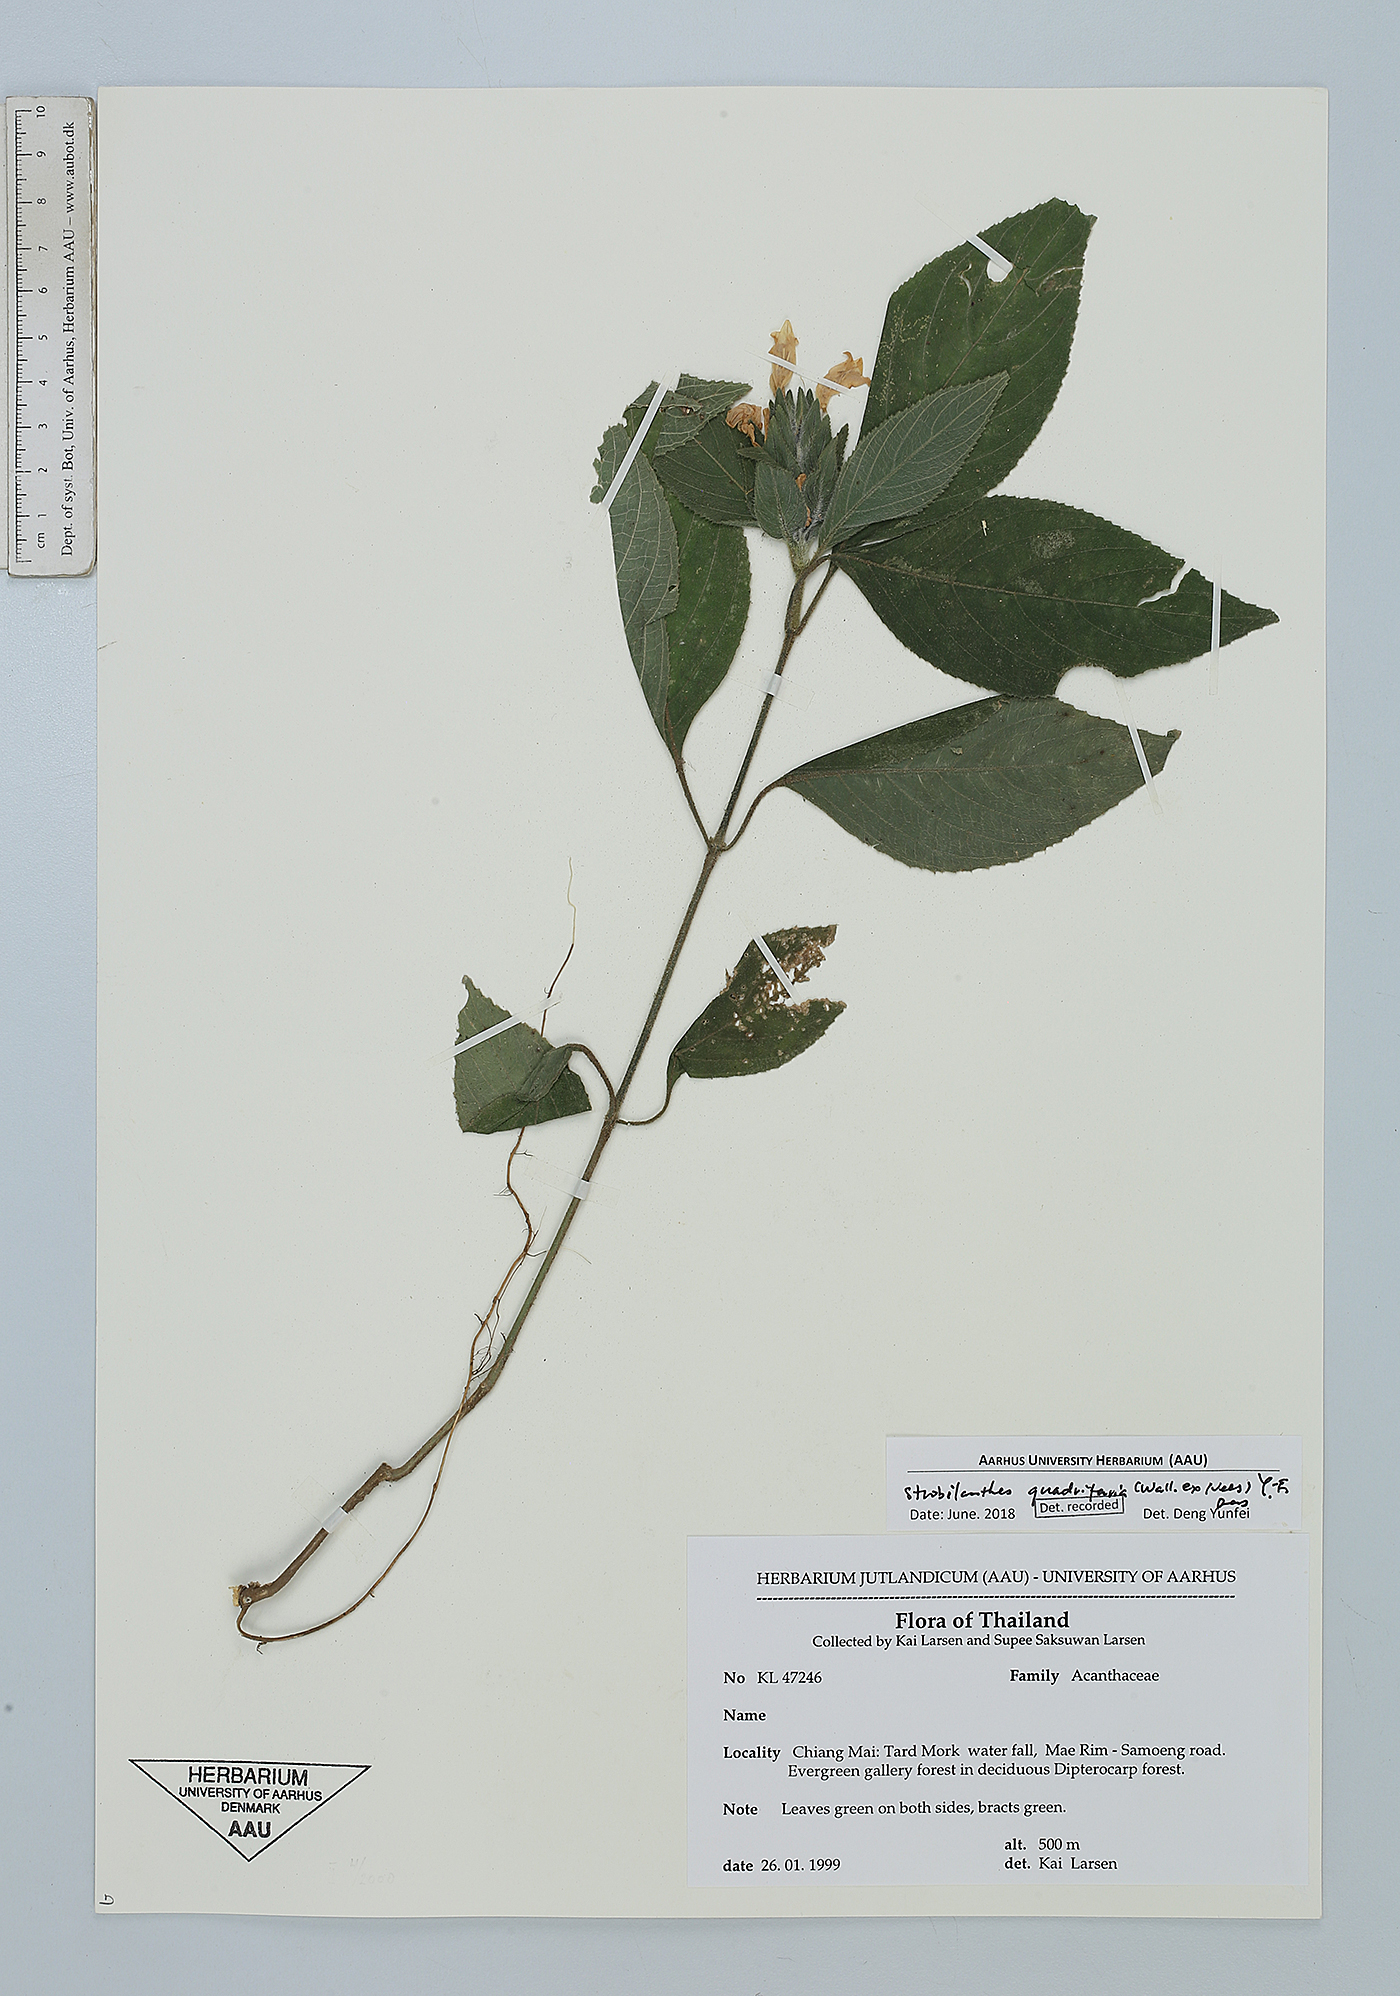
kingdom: Plantae
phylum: Tracheophyta
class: Magnoliopsida
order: Lamiales
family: Acanthaceae
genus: Strobilanthes
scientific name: Strobilanthes quadrifaria
